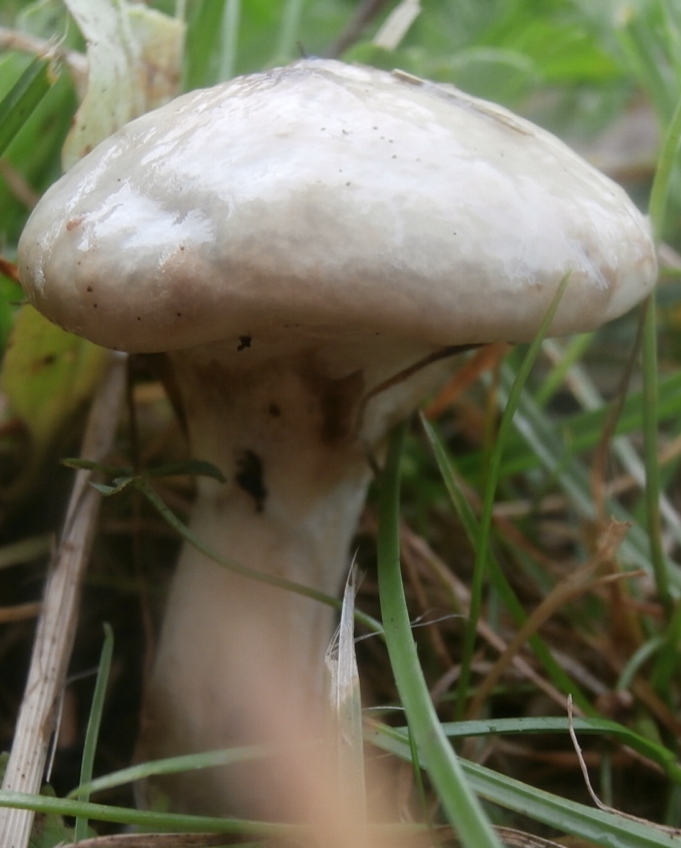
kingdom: Fungi
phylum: Basidiomycota
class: Agaricomycetes
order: Boletales
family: Suillaceae
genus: Suillus
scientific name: Suillus viscidus
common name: olivengrå slimrørhat
